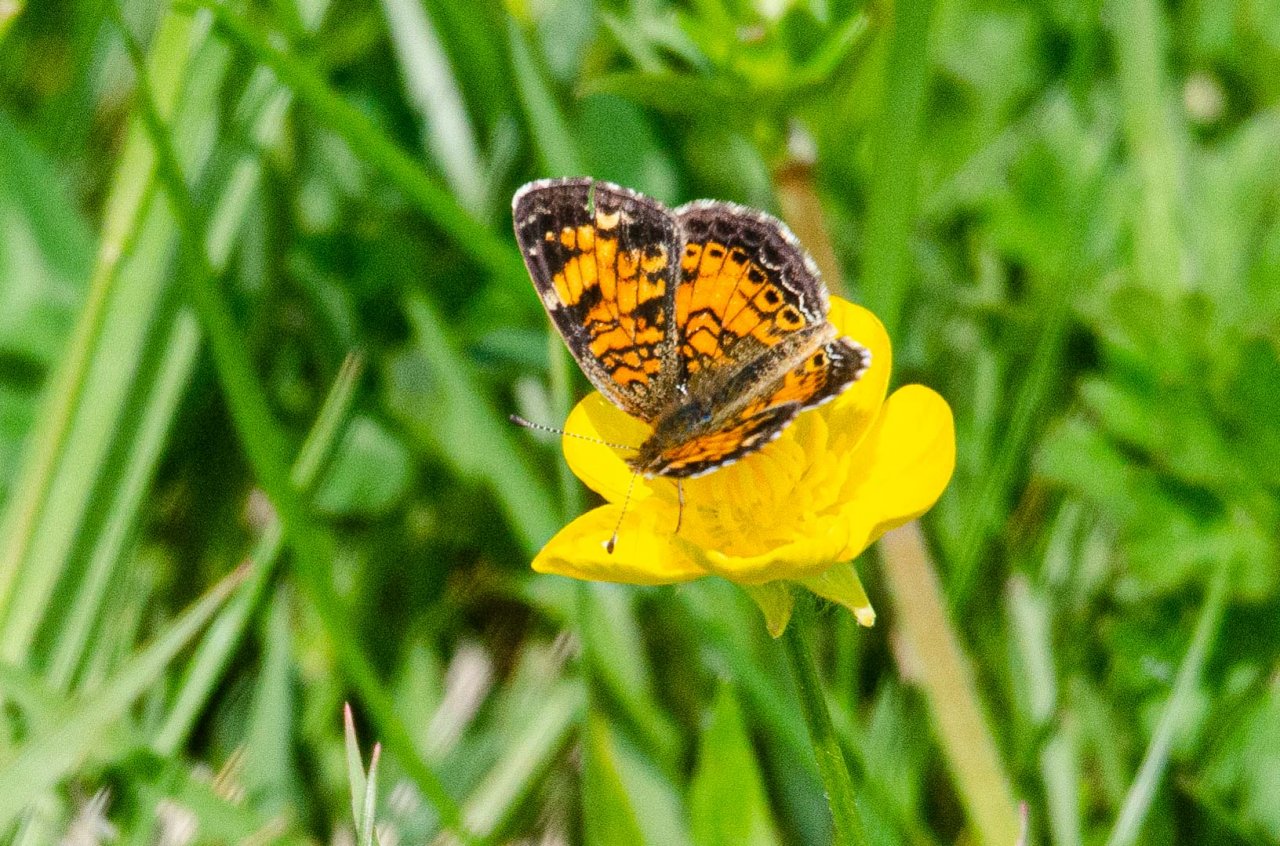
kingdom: Animalia
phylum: Arthropoda
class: Insecta
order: Lepidoptera
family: Nymphalidae
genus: Phyciodes
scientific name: Phyciodes tharos
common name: Pearl Crescent
